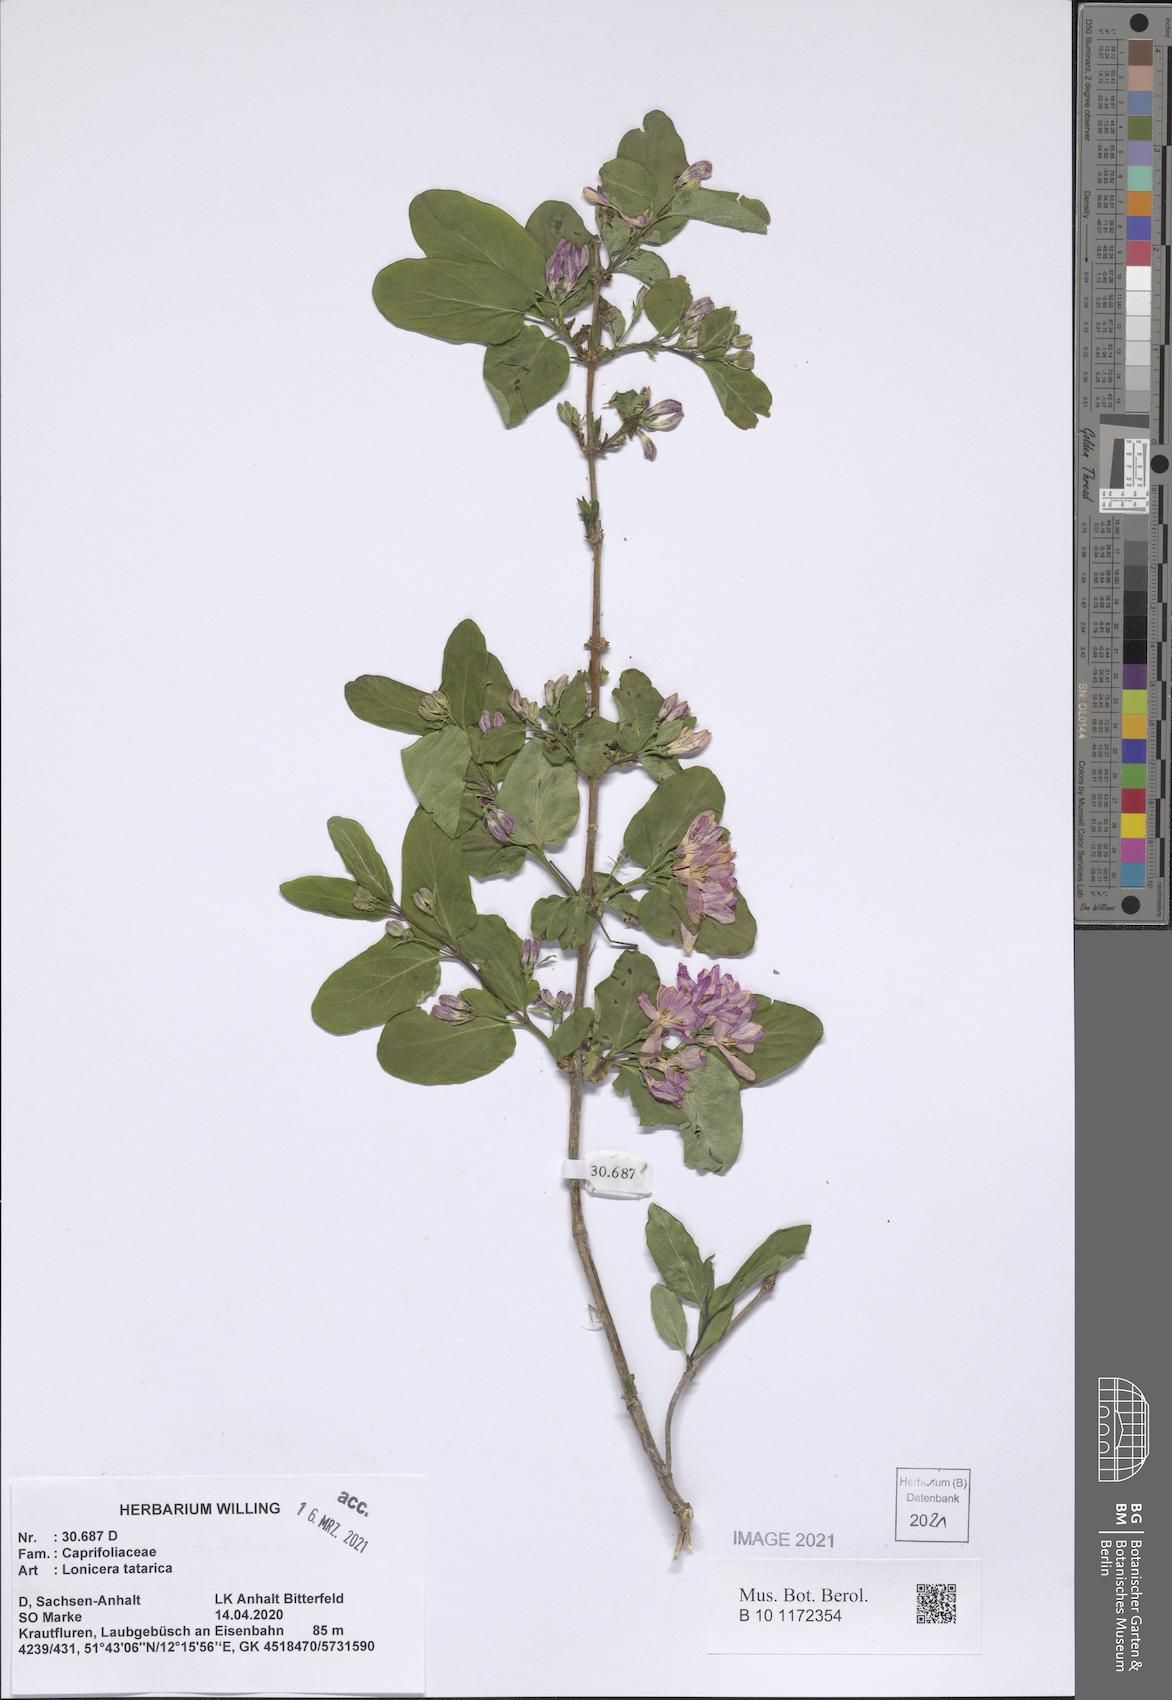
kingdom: Plantae
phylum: Tracheophyta
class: Magnoliopsida
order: Dipsacales
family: Caprifoliaceae
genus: Lonicera
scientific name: Lonicera tatarica
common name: Tatarian honeysuckle
